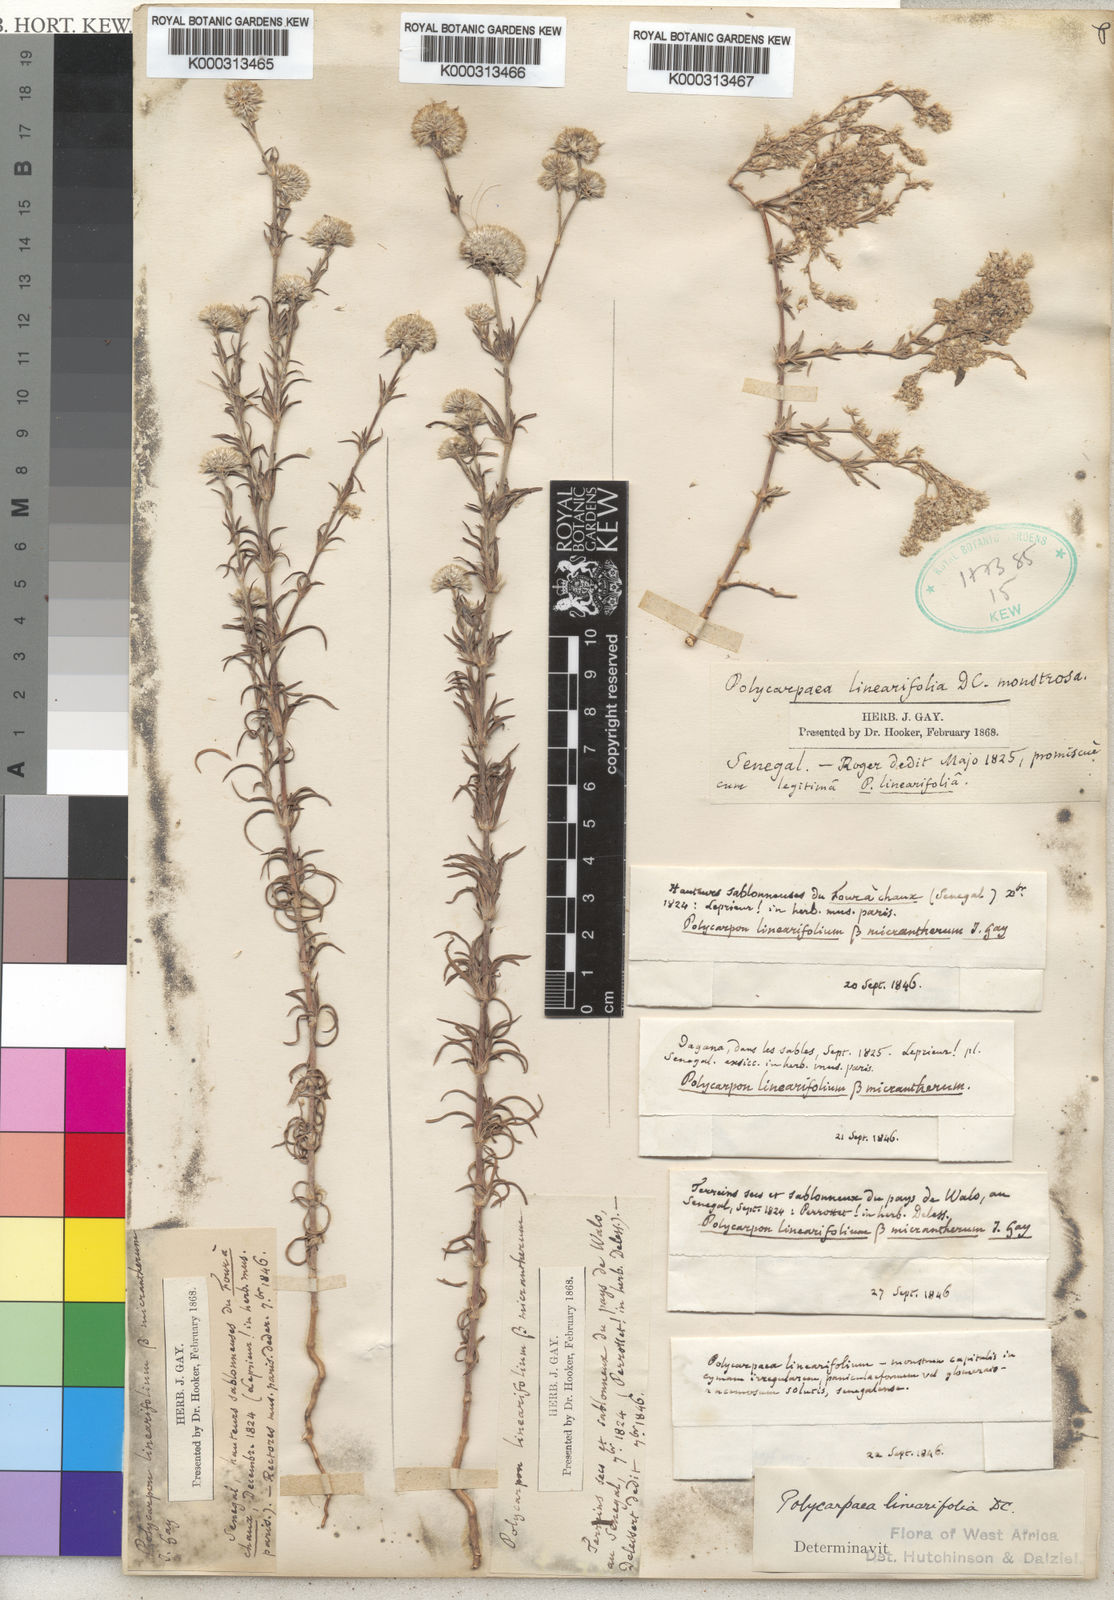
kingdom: Plantae
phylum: Tracheophyta
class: Magnoliopsida
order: Caryophyllales
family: Caryophyllaceae
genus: Polycarpaea
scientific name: Polycarpaea linearifolia
